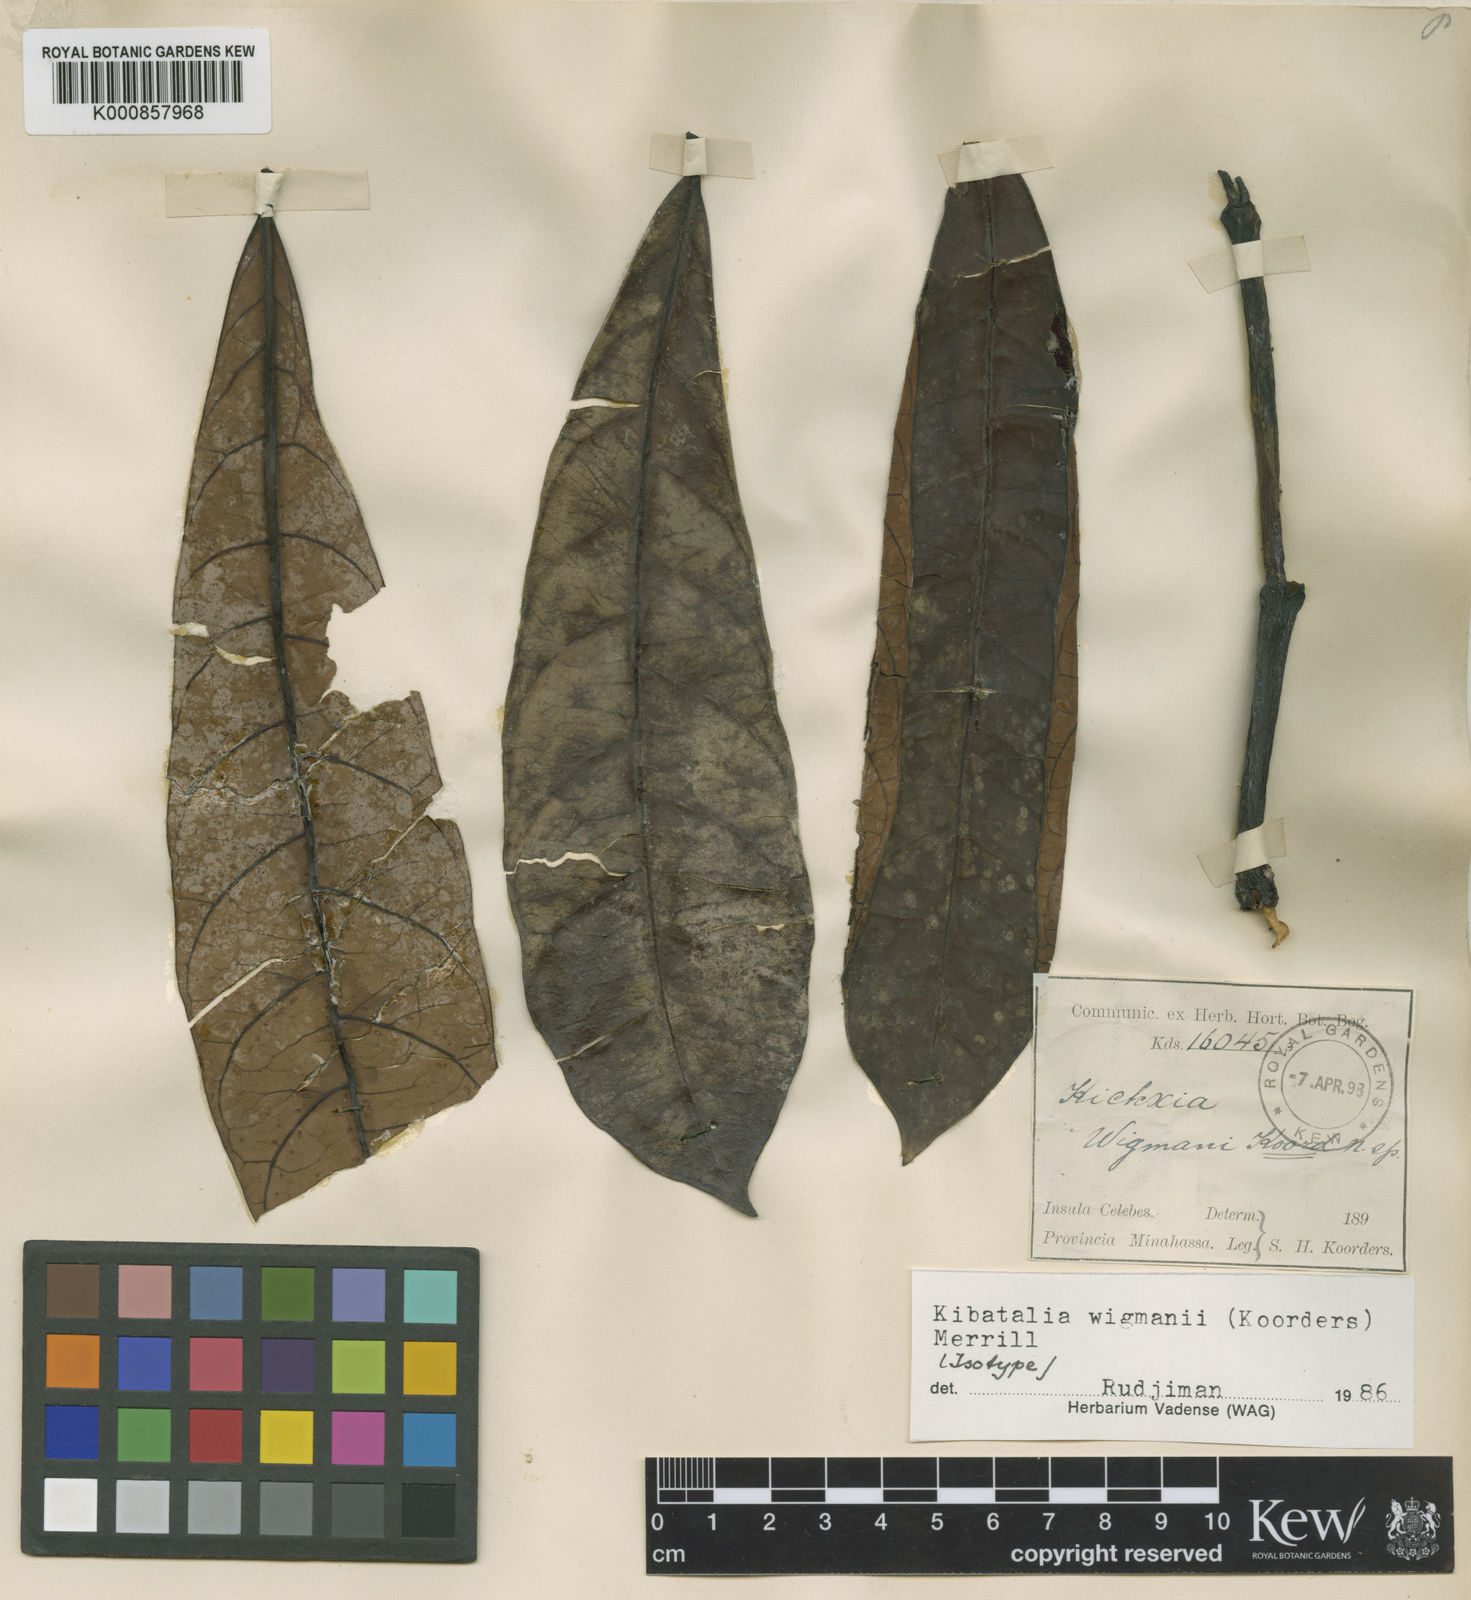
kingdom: Plantae
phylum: Tracheophyta
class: Magnoliopsida
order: Gentianales
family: Apocynaceae
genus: Kibatalia
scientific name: Kibatalia wigmanii
